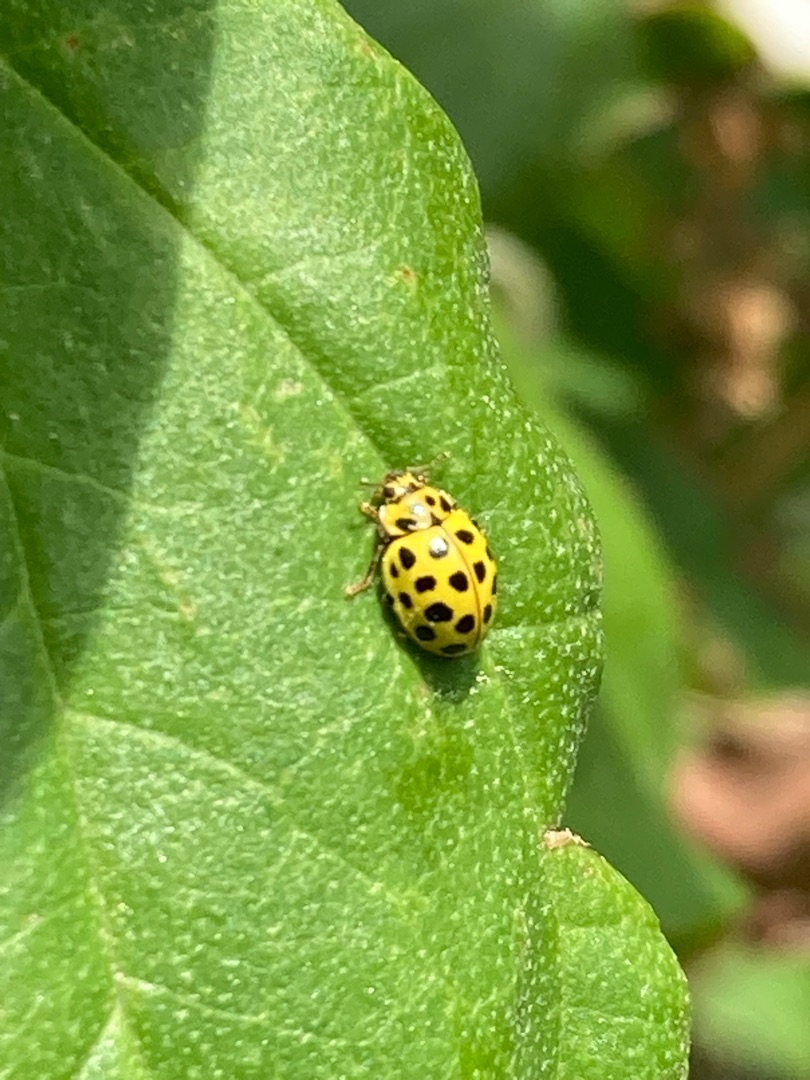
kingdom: Animalia
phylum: Arthropoda
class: Insecta
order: Coleoptera
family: Coccinellidae
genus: Psyllobora
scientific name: Psyllobora vigintiduopunctata
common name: Toogtyveplettet mariehøne
